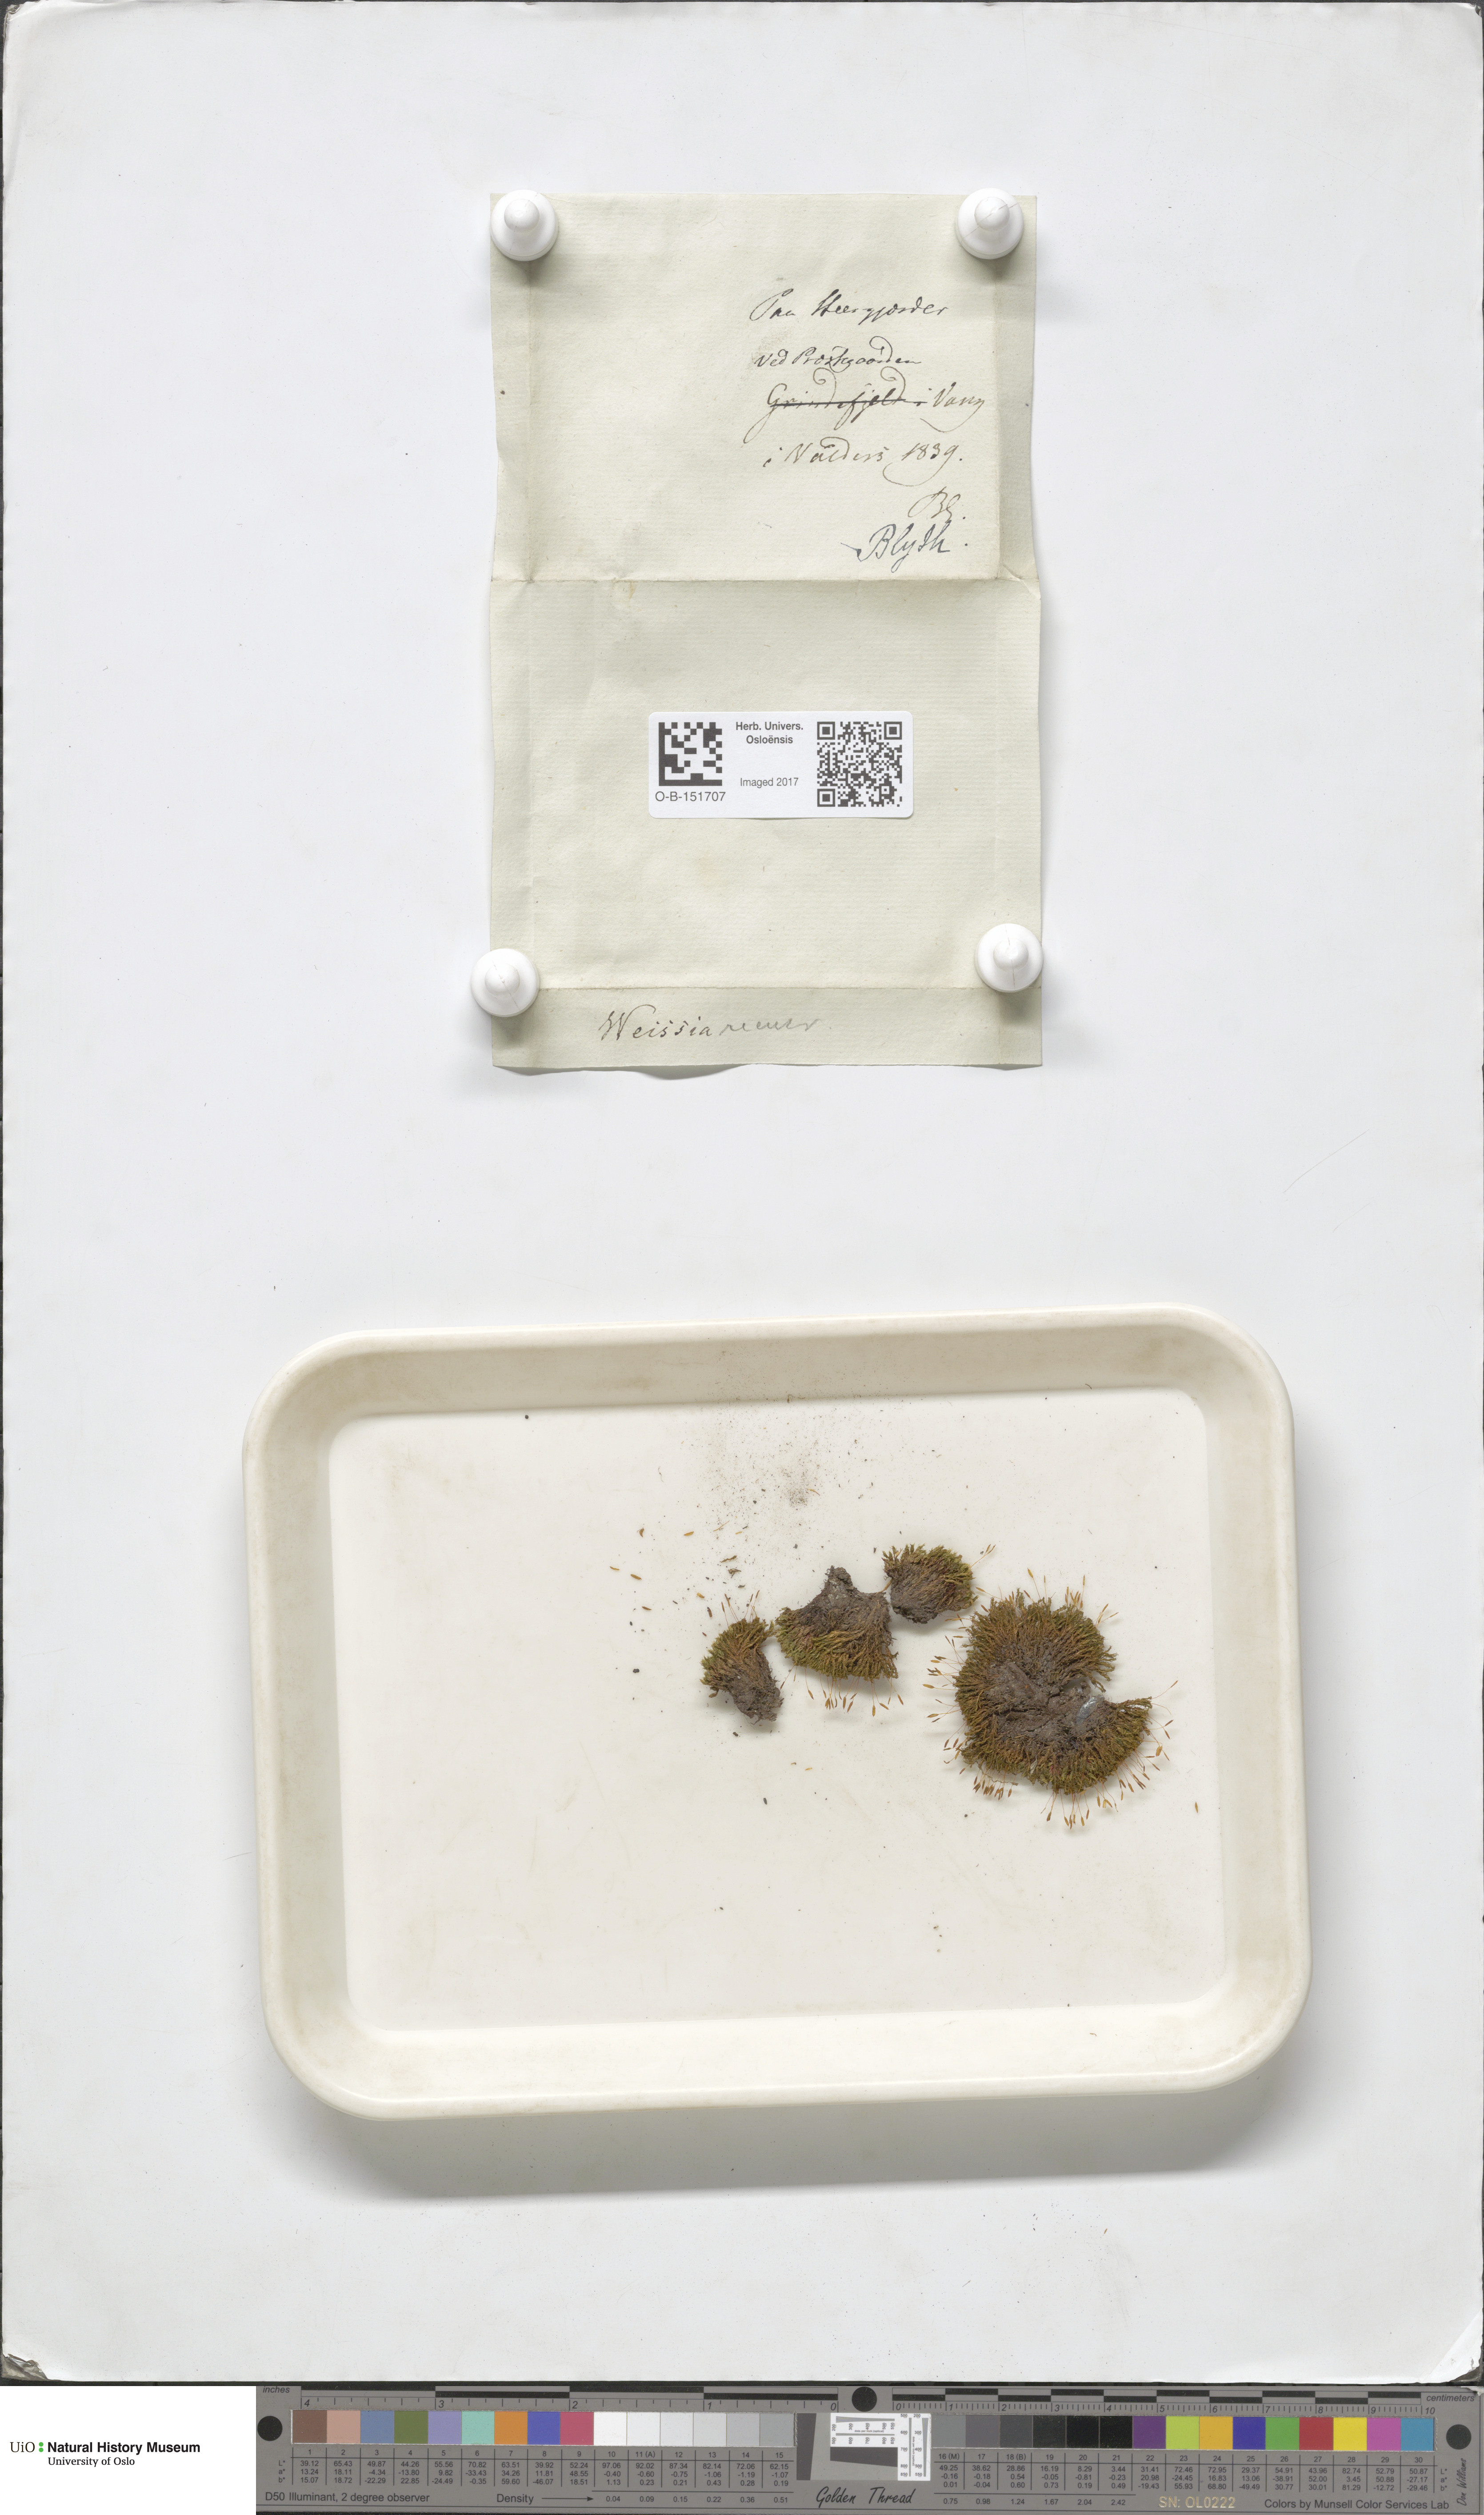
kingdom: Plantae
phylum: Bryophyta
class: Bryopsida
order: Pottiales
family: Pottiaceae
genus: Bryoerythrophyllum
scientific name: Bryoerythrophyllum recurvirostrum
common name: Red beard moss
